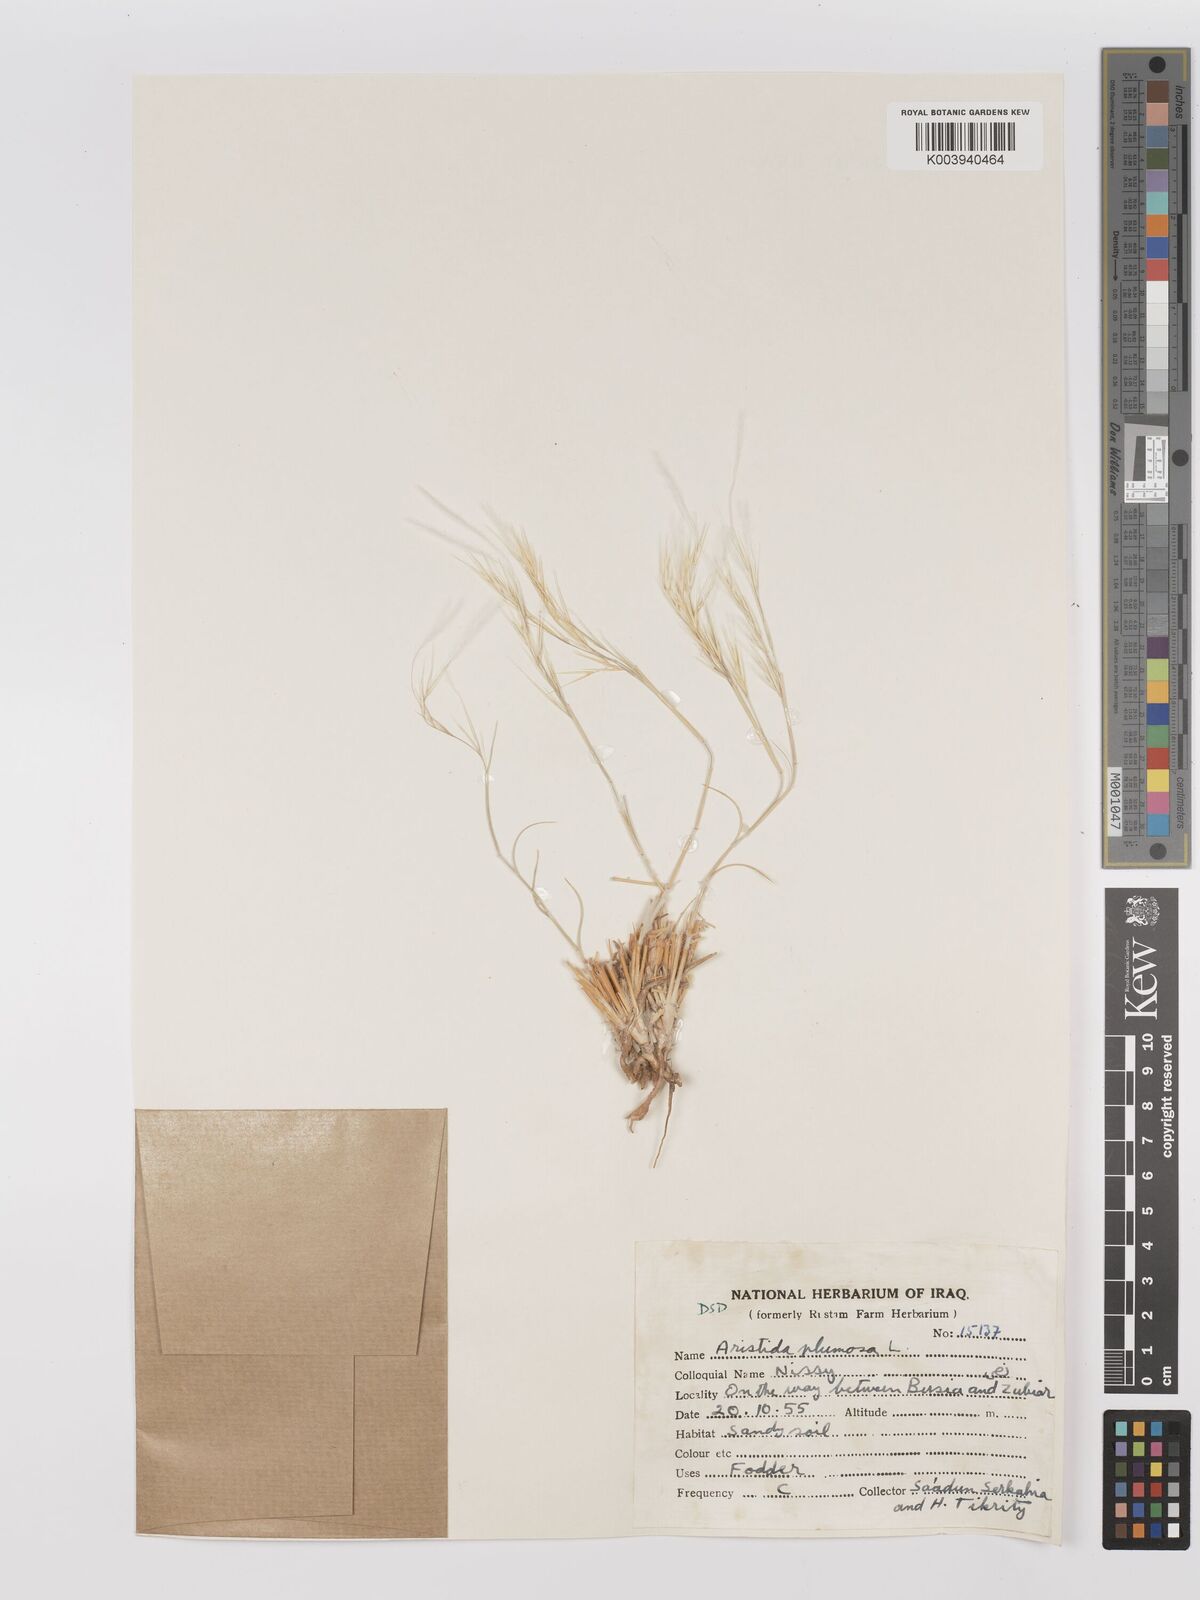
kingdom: Plantae
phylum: Tracheophyta
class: Liliopsida
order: Poales
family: Poaceae
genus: Stipagrostis
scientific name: Stipagrostis plumosa
